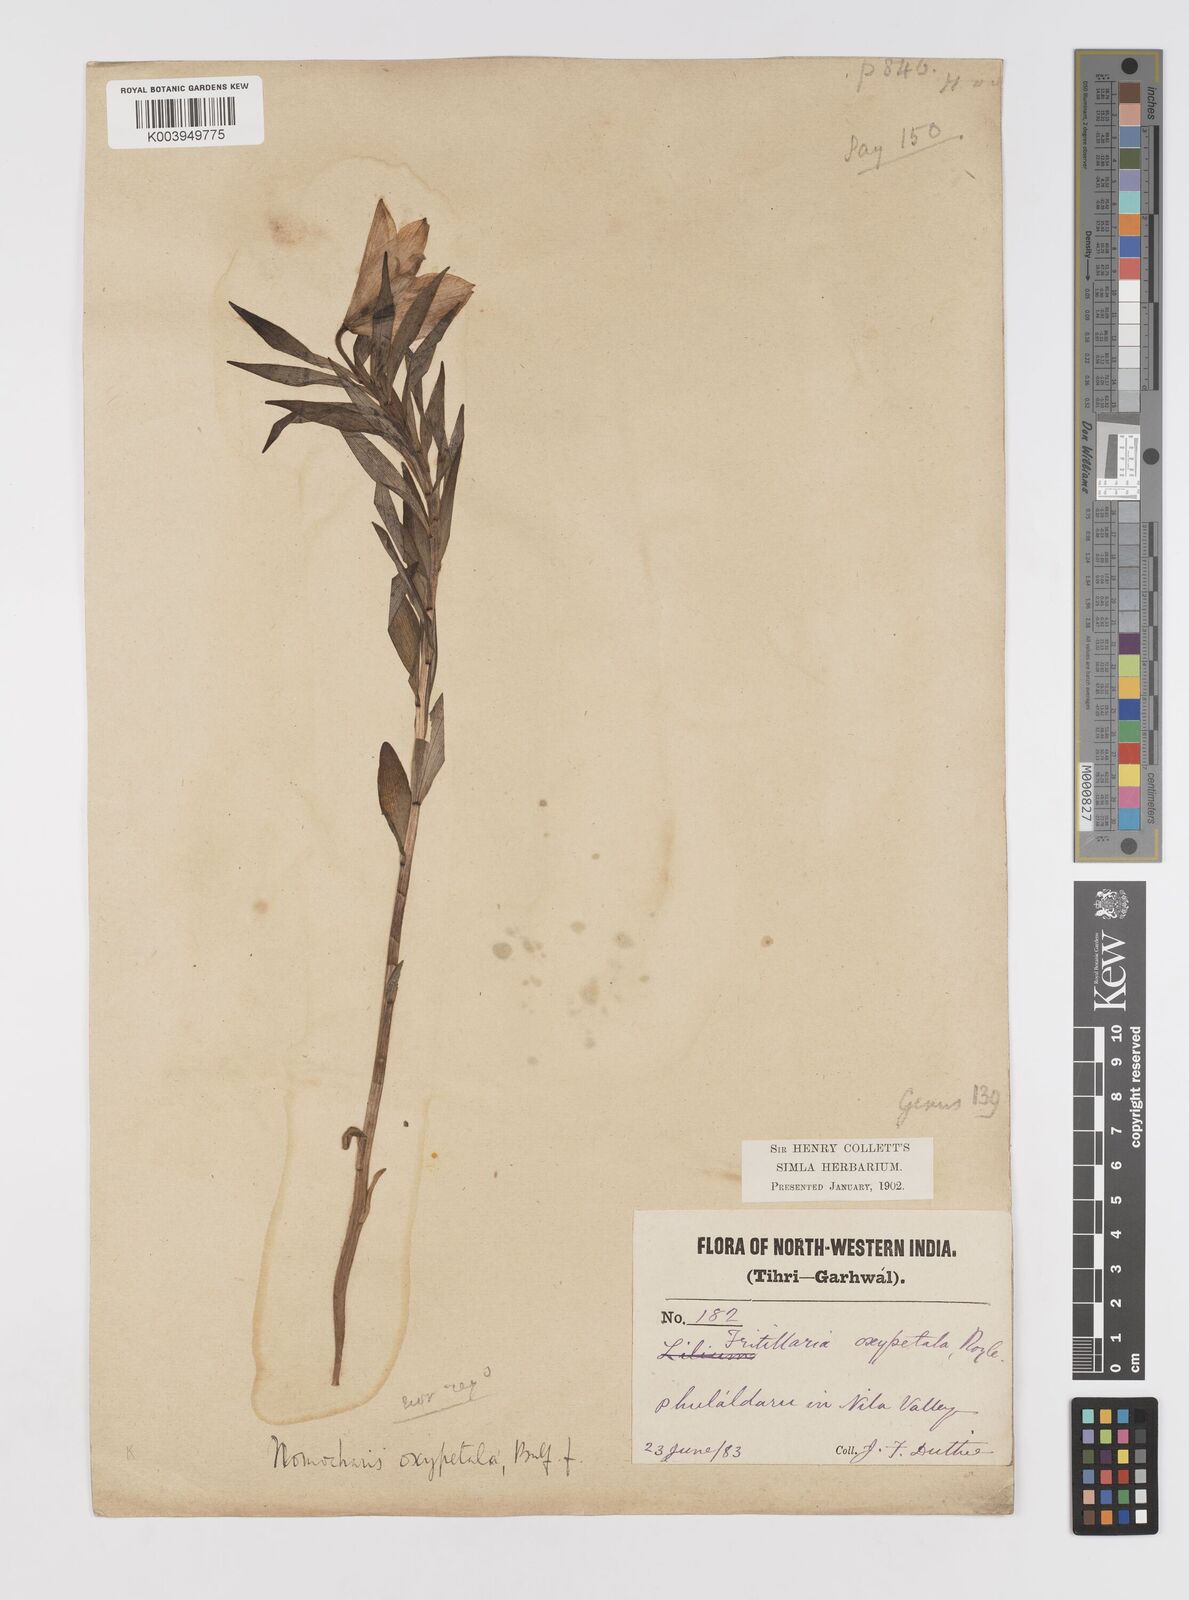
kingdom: Plantae
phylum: Tracheophyta
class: Liliopsida
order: Liliales
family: Liliaceae
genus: Lilium
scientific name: Lilium oxypetalum
